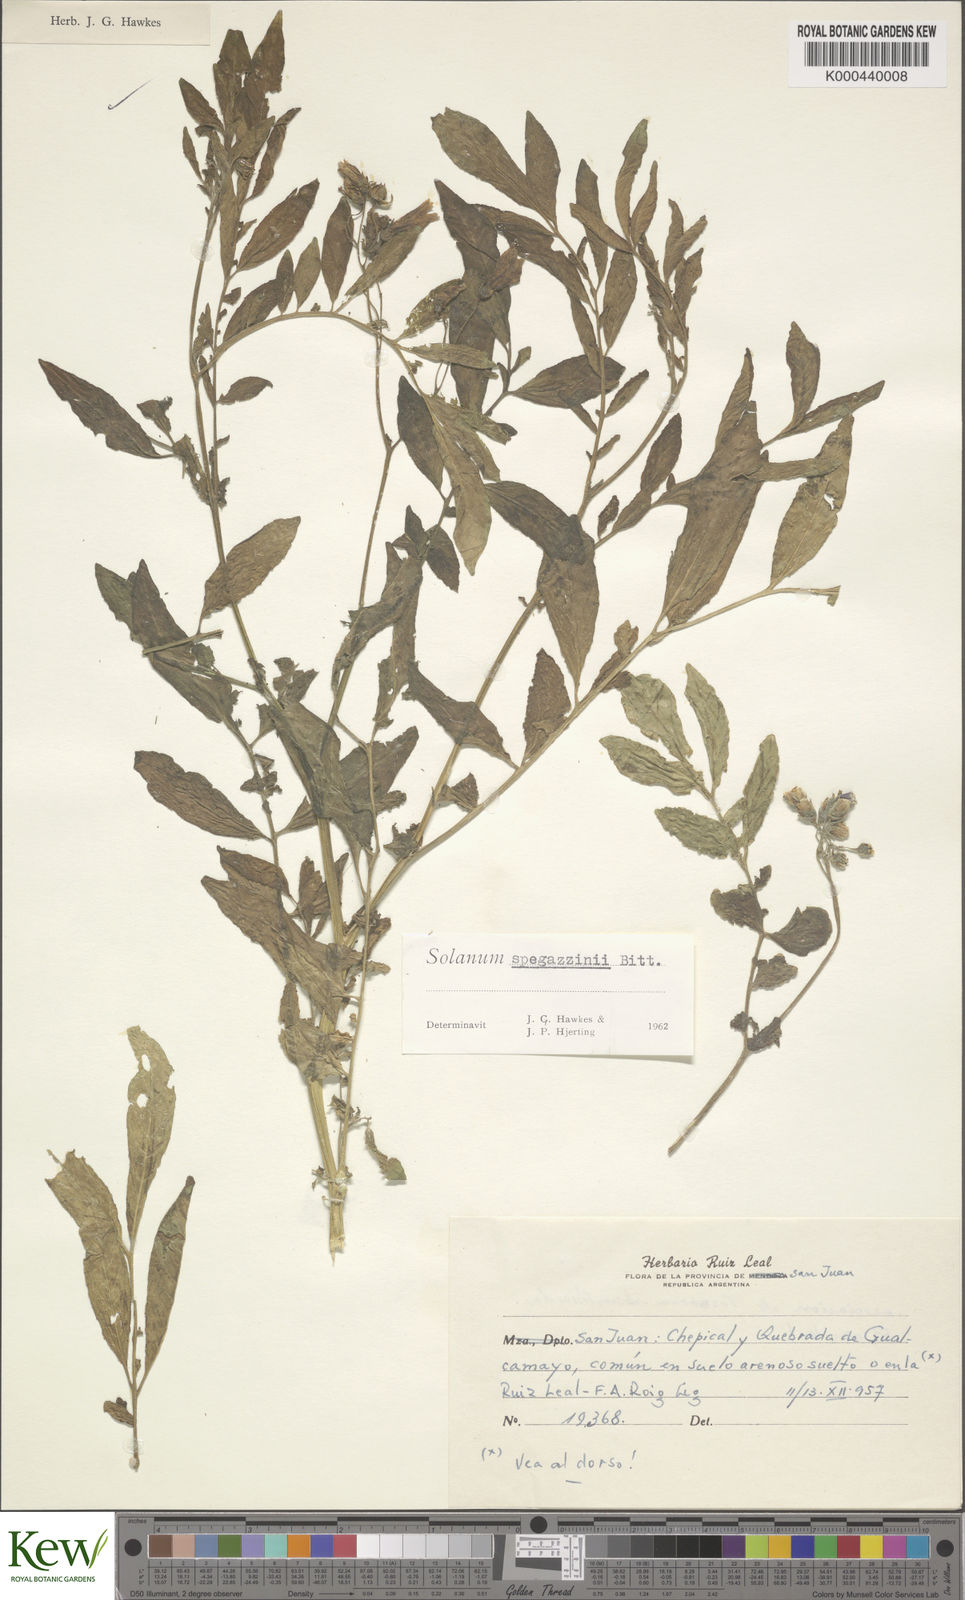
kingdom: Plantae
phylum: Tracheophyta
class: Magnoliopsida
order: Solanales
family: Solanaceae
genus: Solanum
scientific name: Solanum brevicaule
